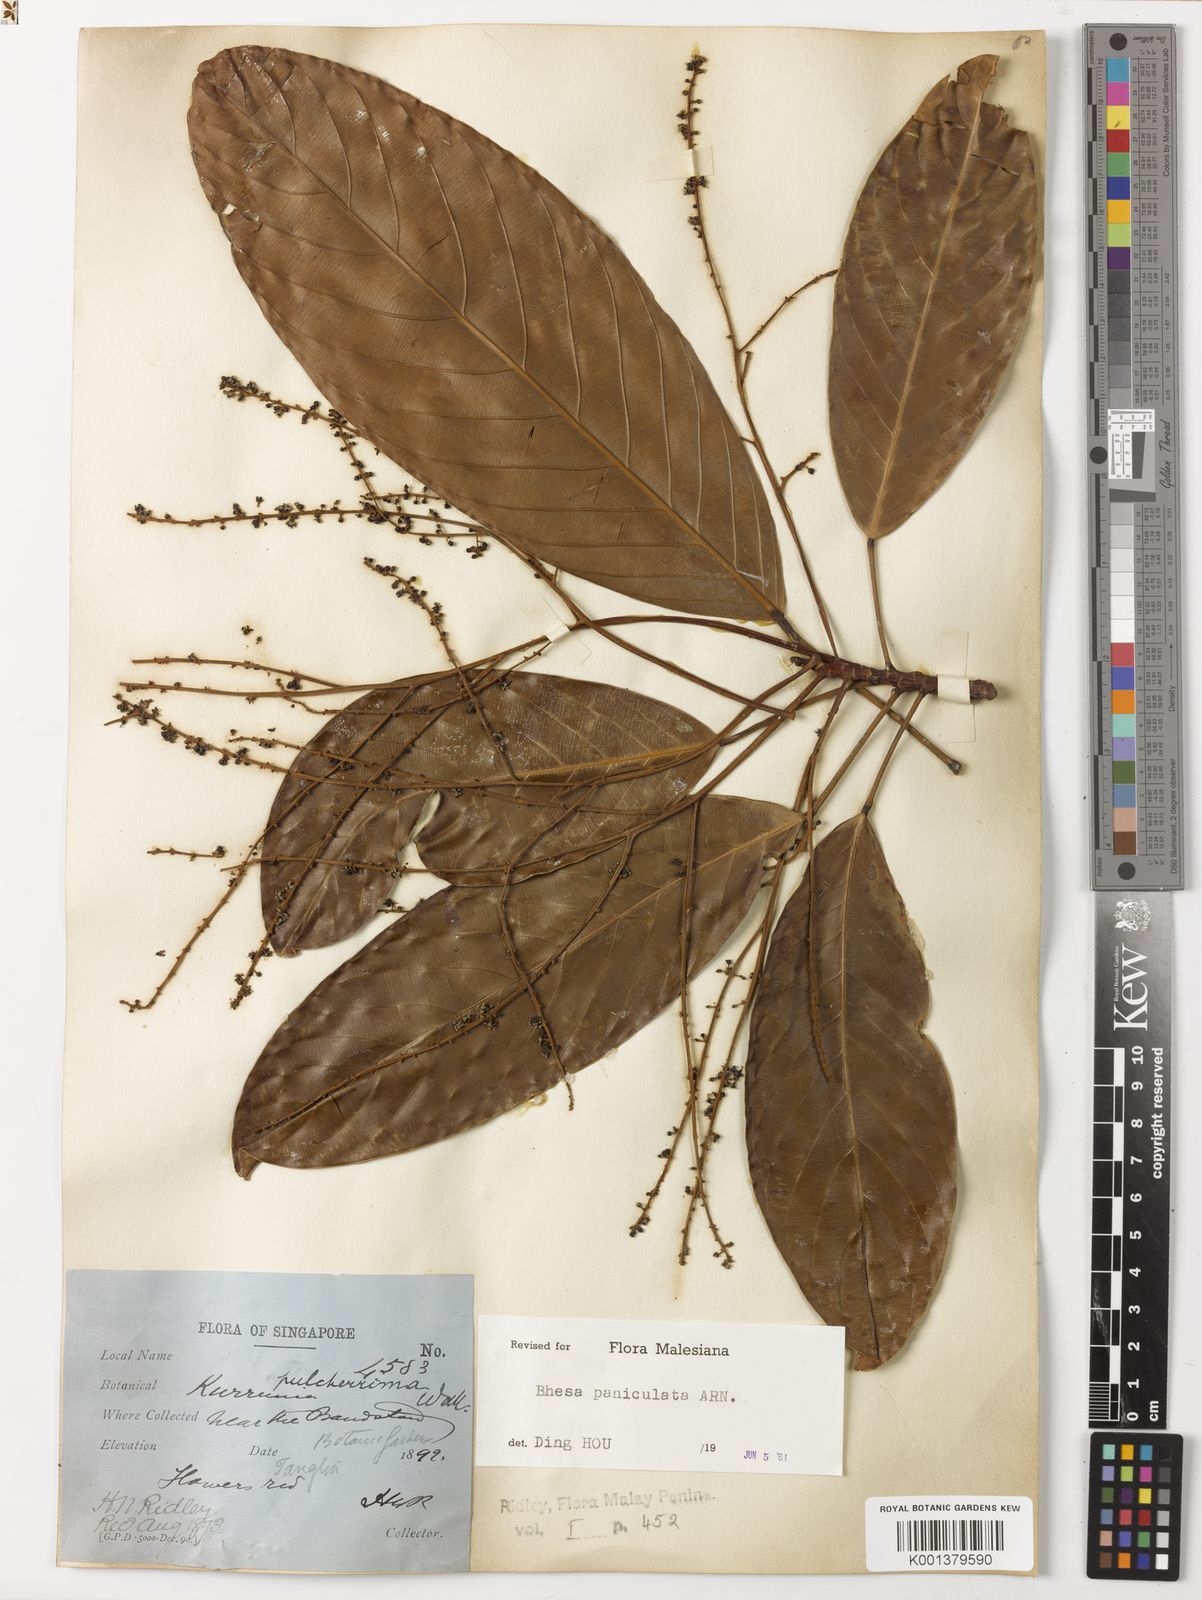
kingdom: Plantae
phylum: Tracheophyta
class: Magnoliopsida
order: Malpighiales
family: Centroplacaceae
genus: Bhesa
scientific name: Bhesa paniculata
